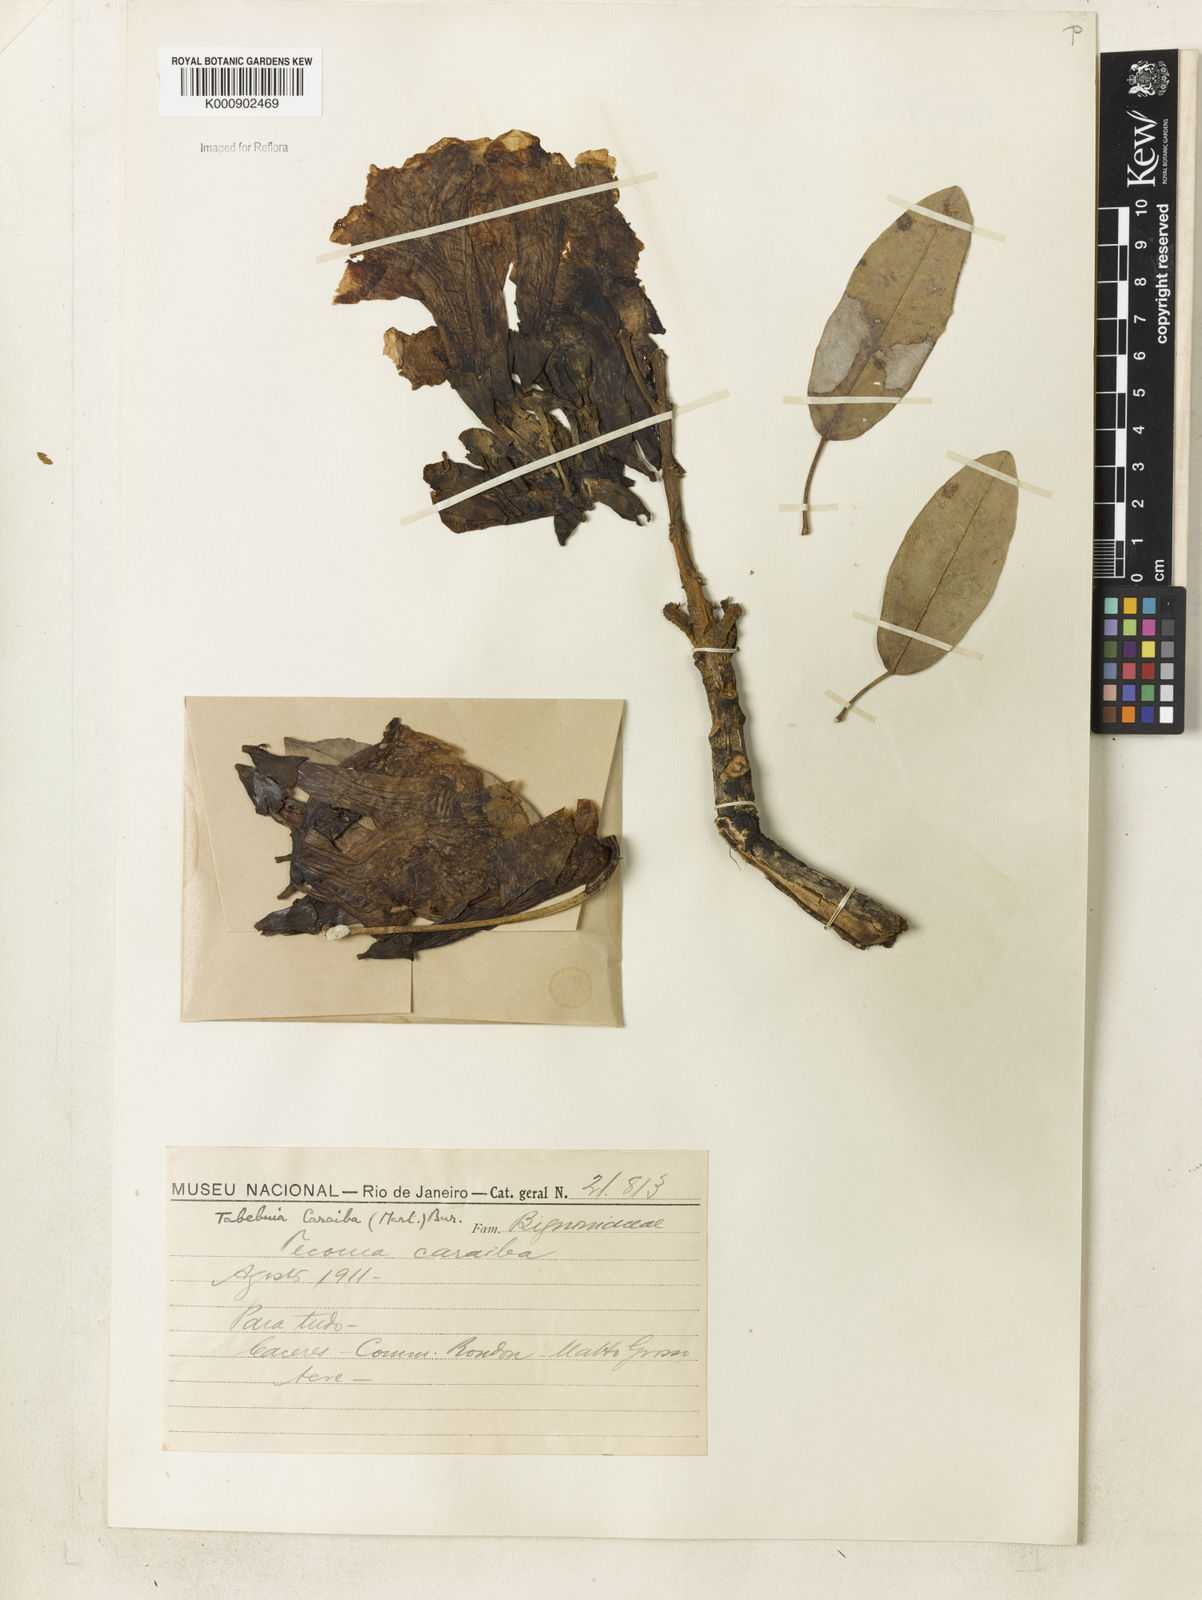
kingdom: Plantae
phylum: Tracheophyta
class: Magnoliopsida
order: Lamiales
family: Bignoniaceae
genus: Tabebuia
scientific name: Tabebuia aurea
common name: Caribbean trumpet-tree
